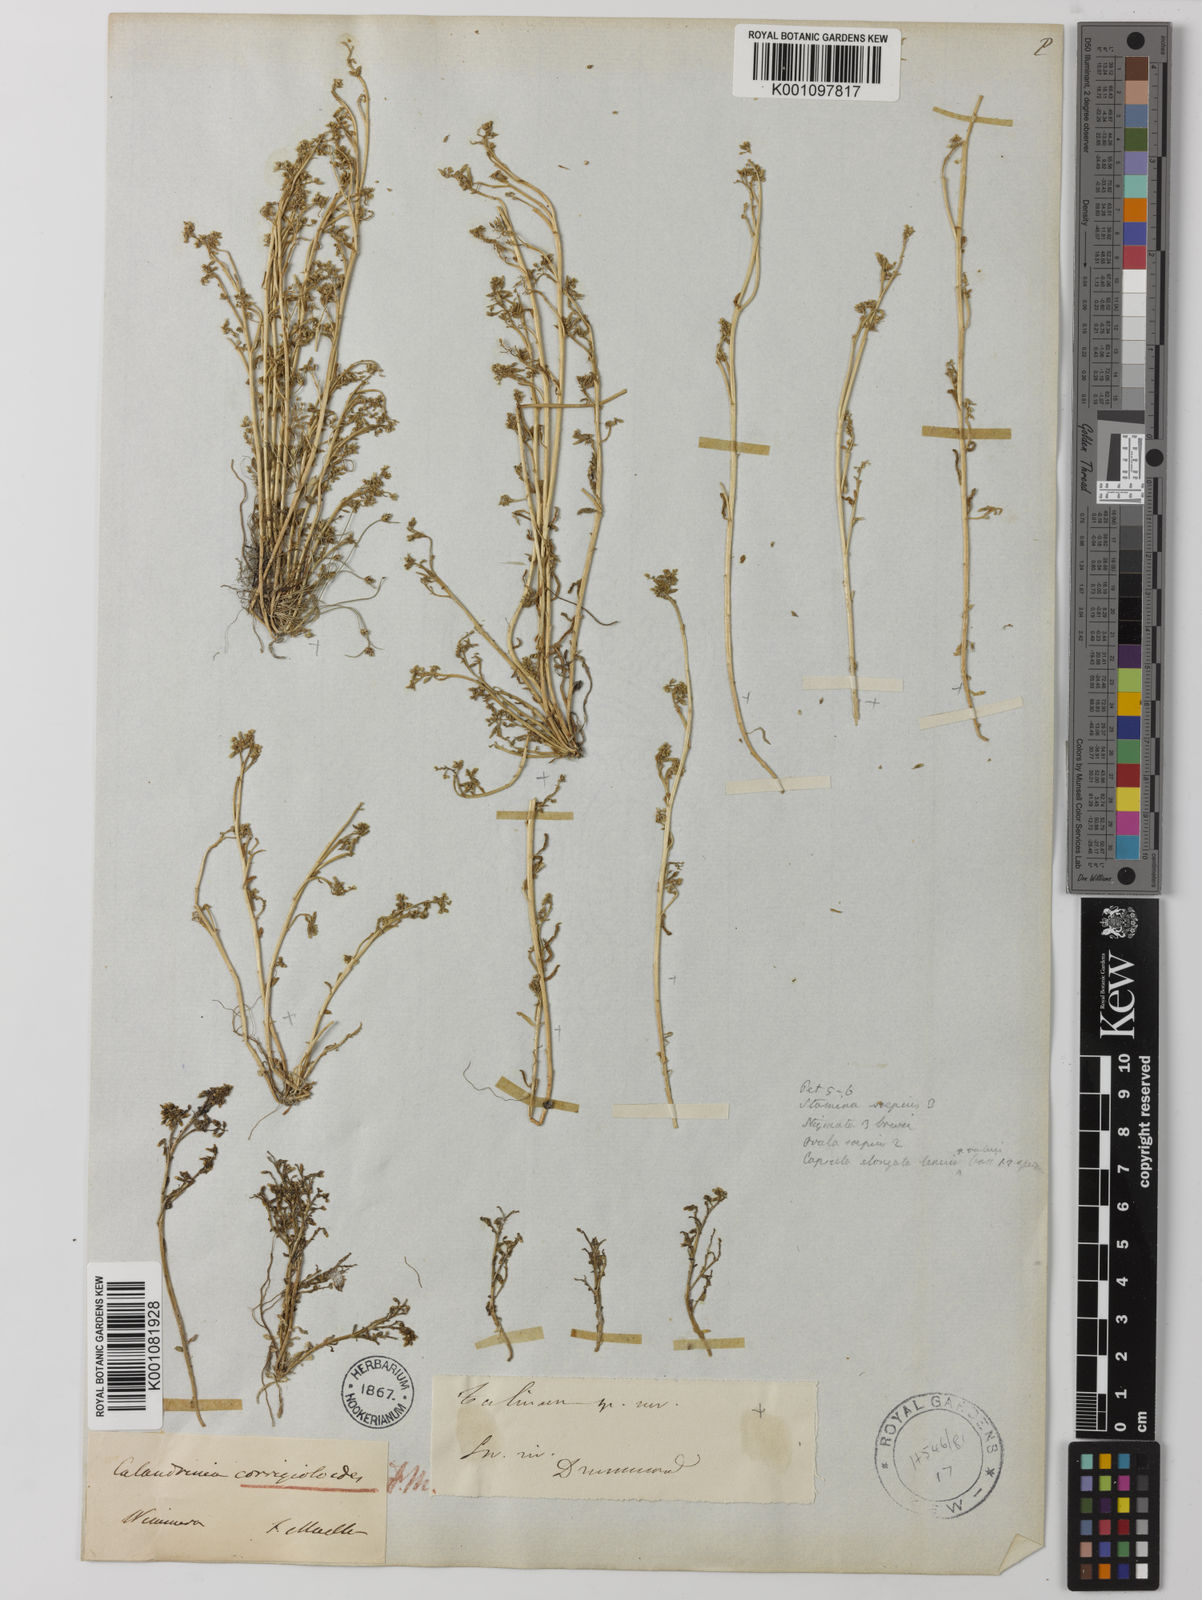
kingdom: Plantae
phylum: Tracheophyta
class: Magnoliopsida
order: Caryophyllales
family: Montiaceae
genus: Rumicastrum
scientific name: Rumicastrum corrigioloides
